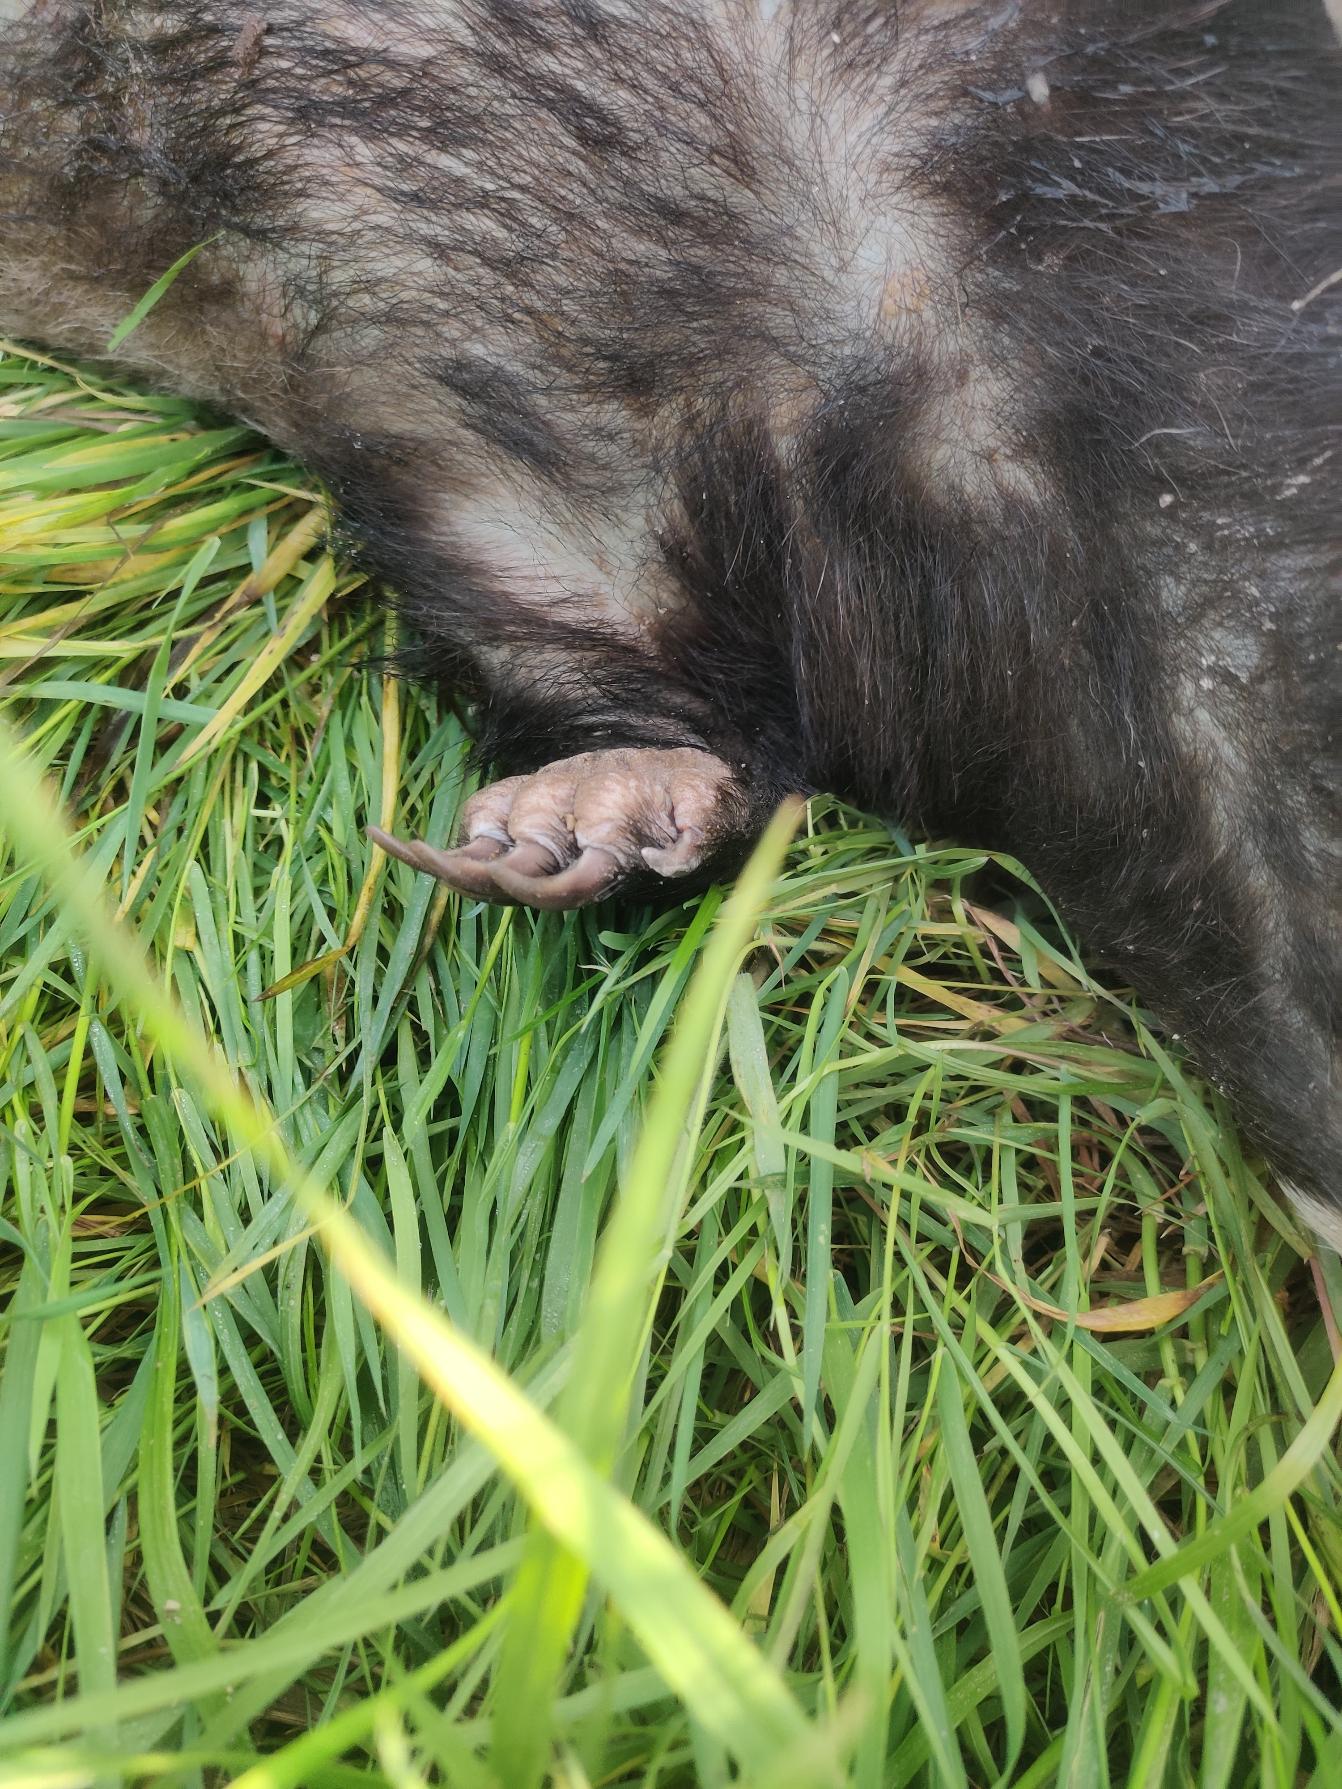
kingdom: Animalia
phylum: Chordata
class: Mammalia
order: Carnivora
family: Mustelidae
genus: Meles
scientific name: Meles meles
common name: Grævling
